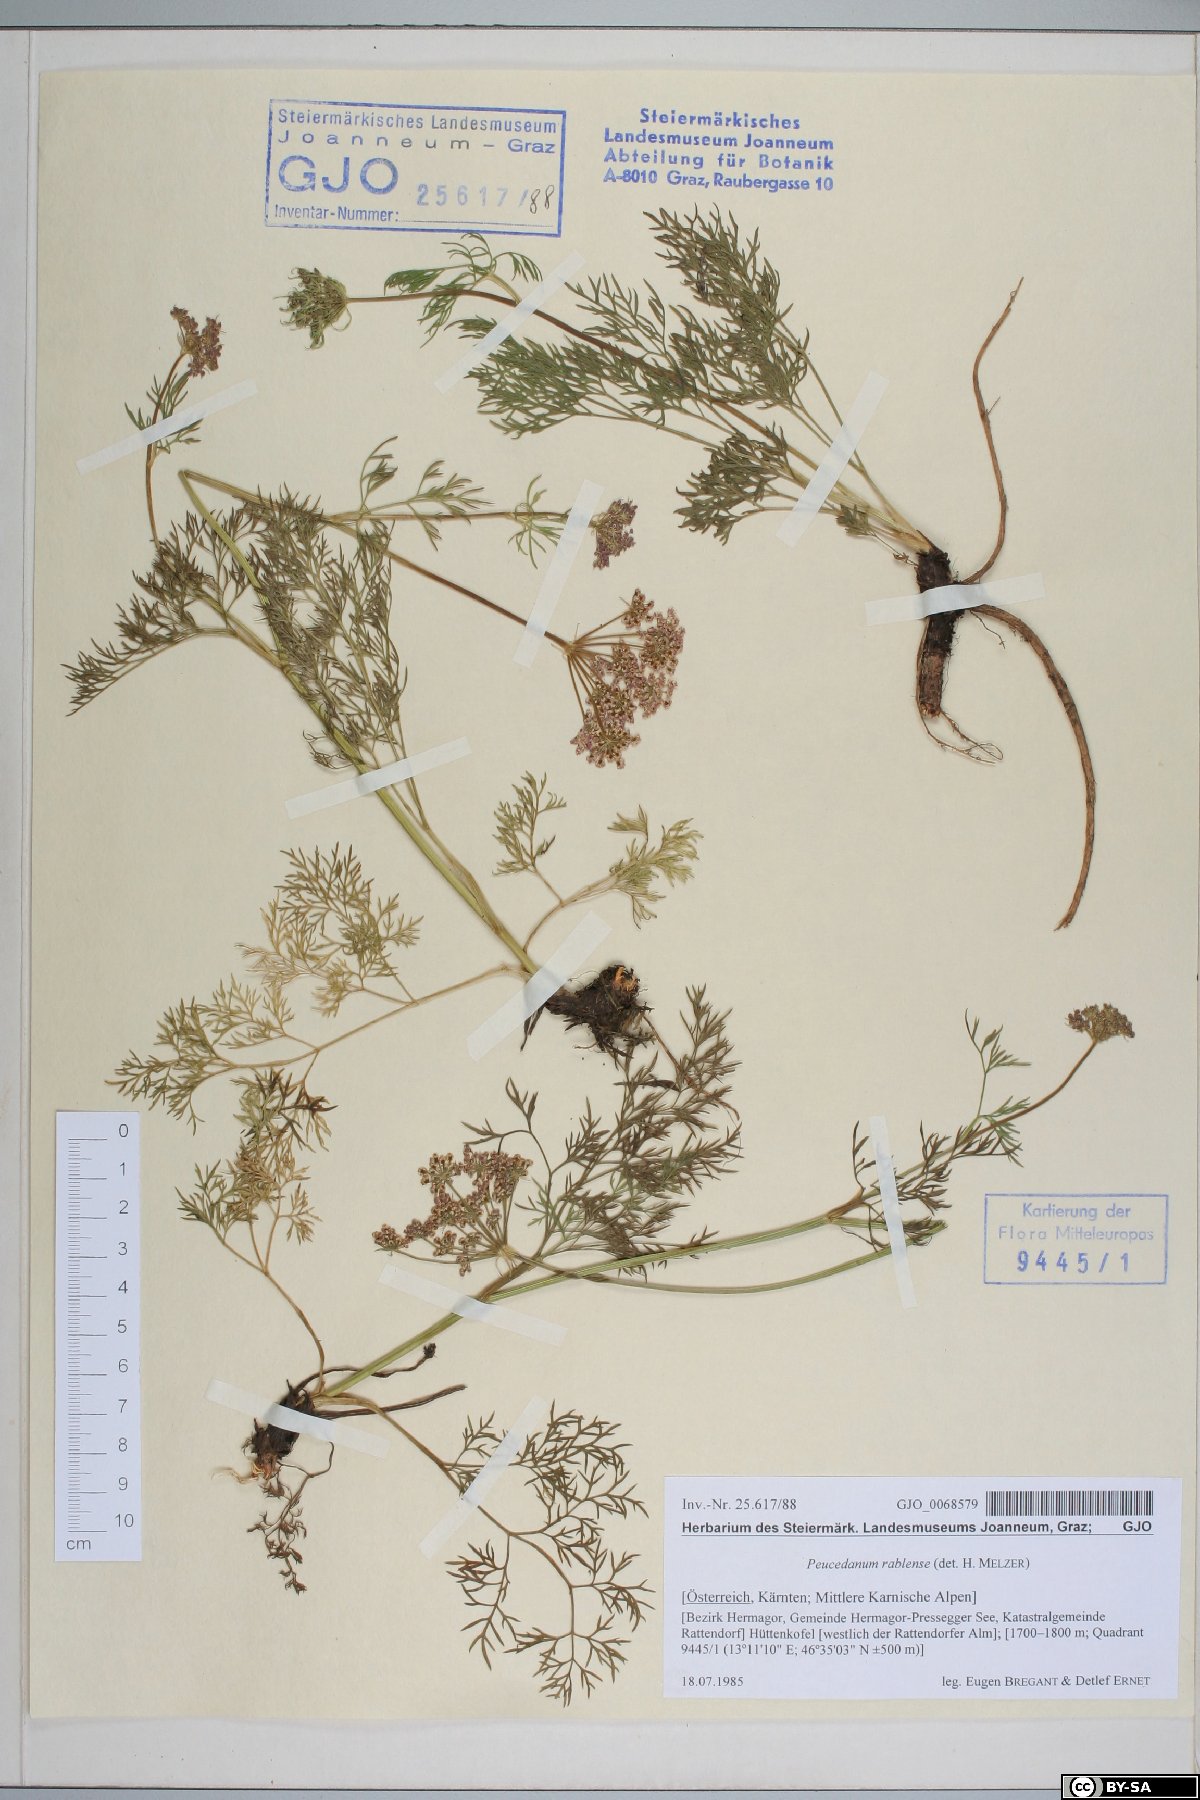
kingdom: Plantae
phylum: Tracheophyta
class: Magnoliopsida
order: Apiales
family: Apiaceae
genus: Peucedanum
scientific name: Peucedanum rablense
